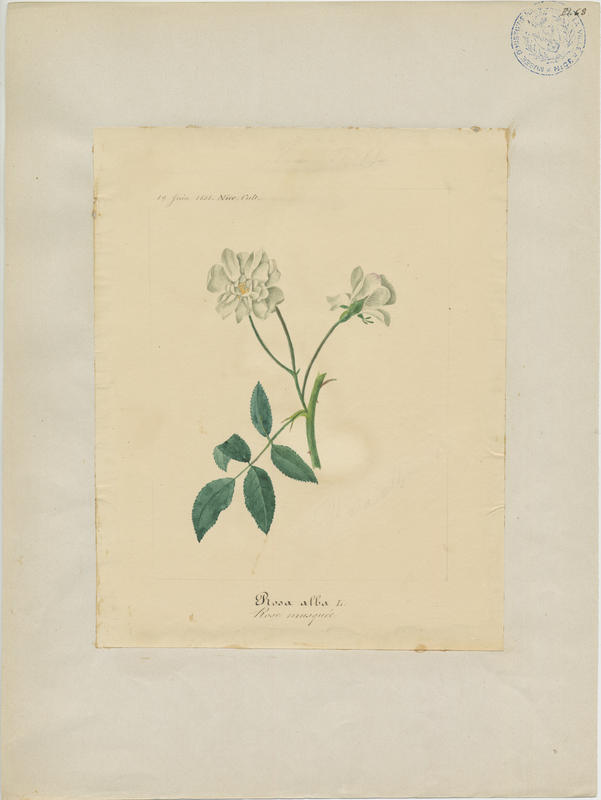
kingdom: Plantae
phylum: Tracheophyta
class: Magnoliopsida
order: Rosales
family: Rosaceae
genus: Rosa
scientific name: Rosa alba
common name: White rose
